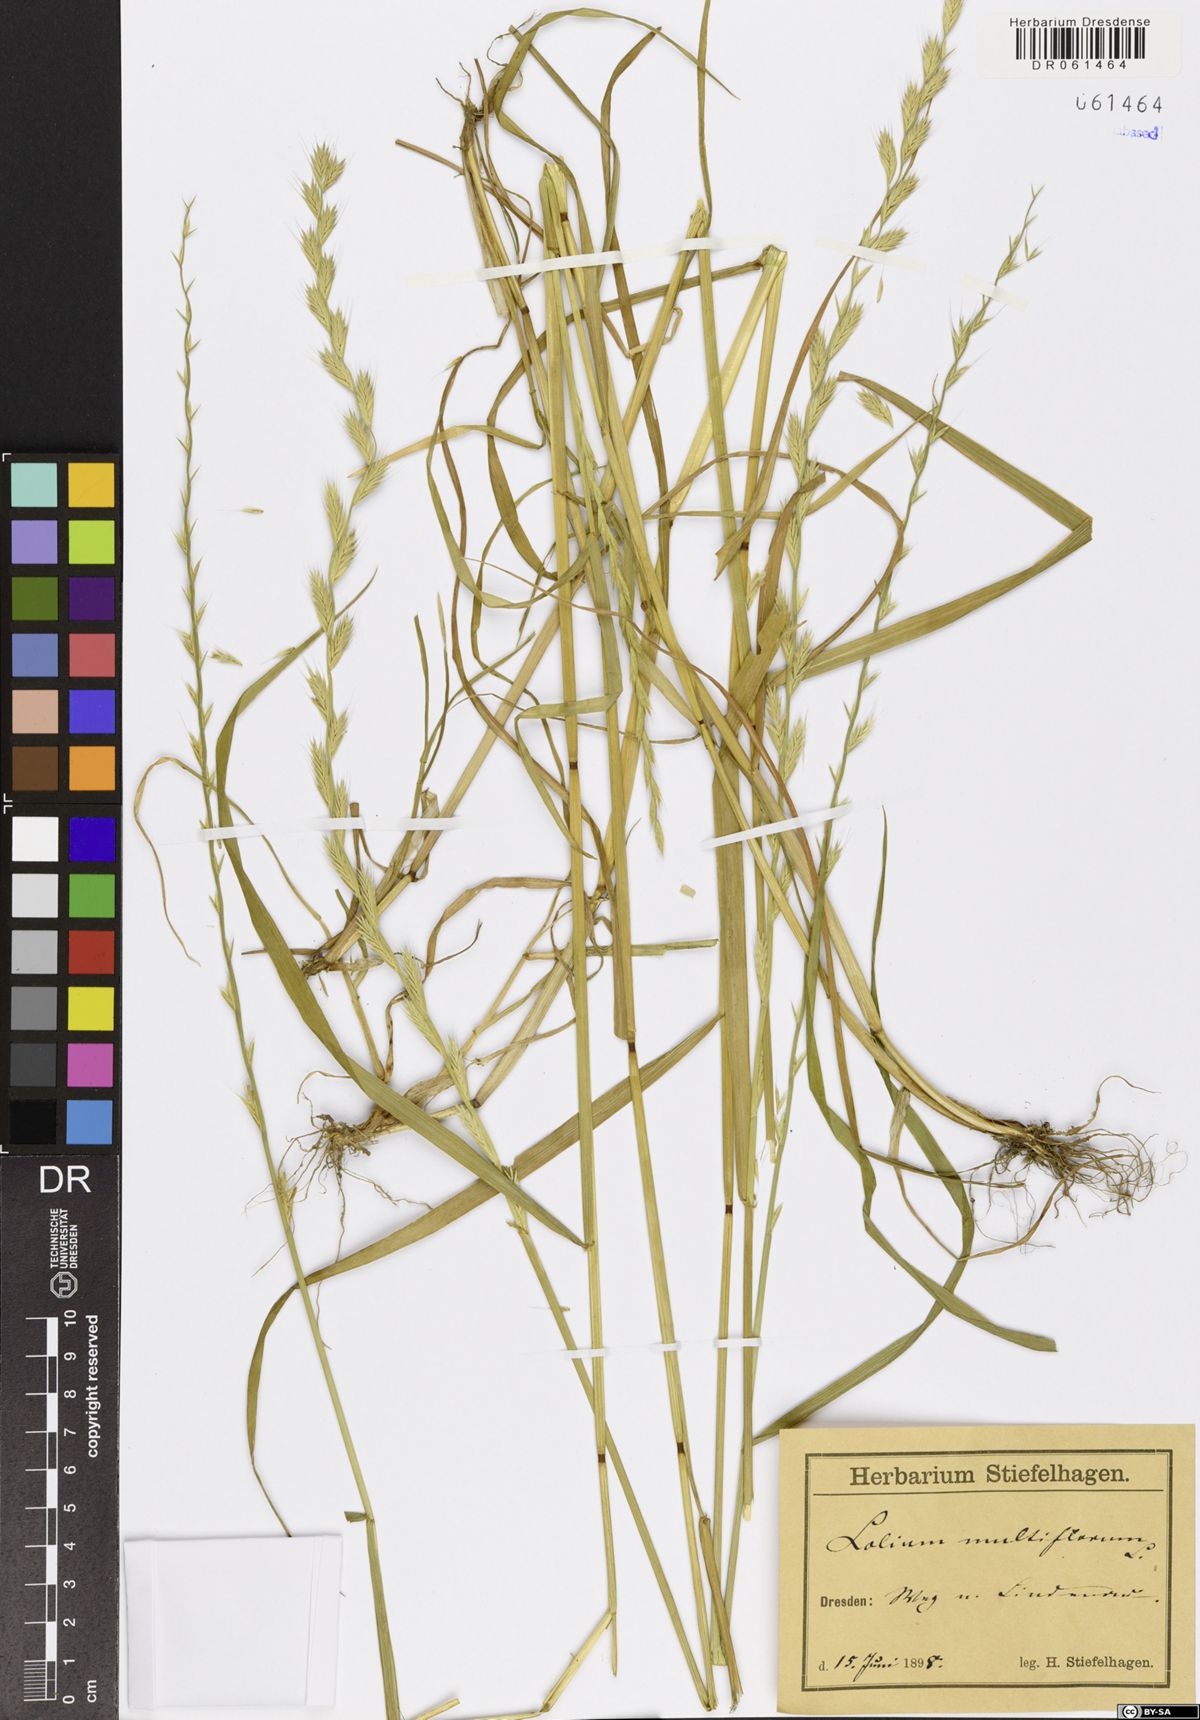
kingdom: Plantae
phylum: Tracheophyta
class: Liliopsida
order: Poales
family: Poaceae
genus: Lolium
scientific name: Lolium multiflorum
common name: Annual ryegrass
